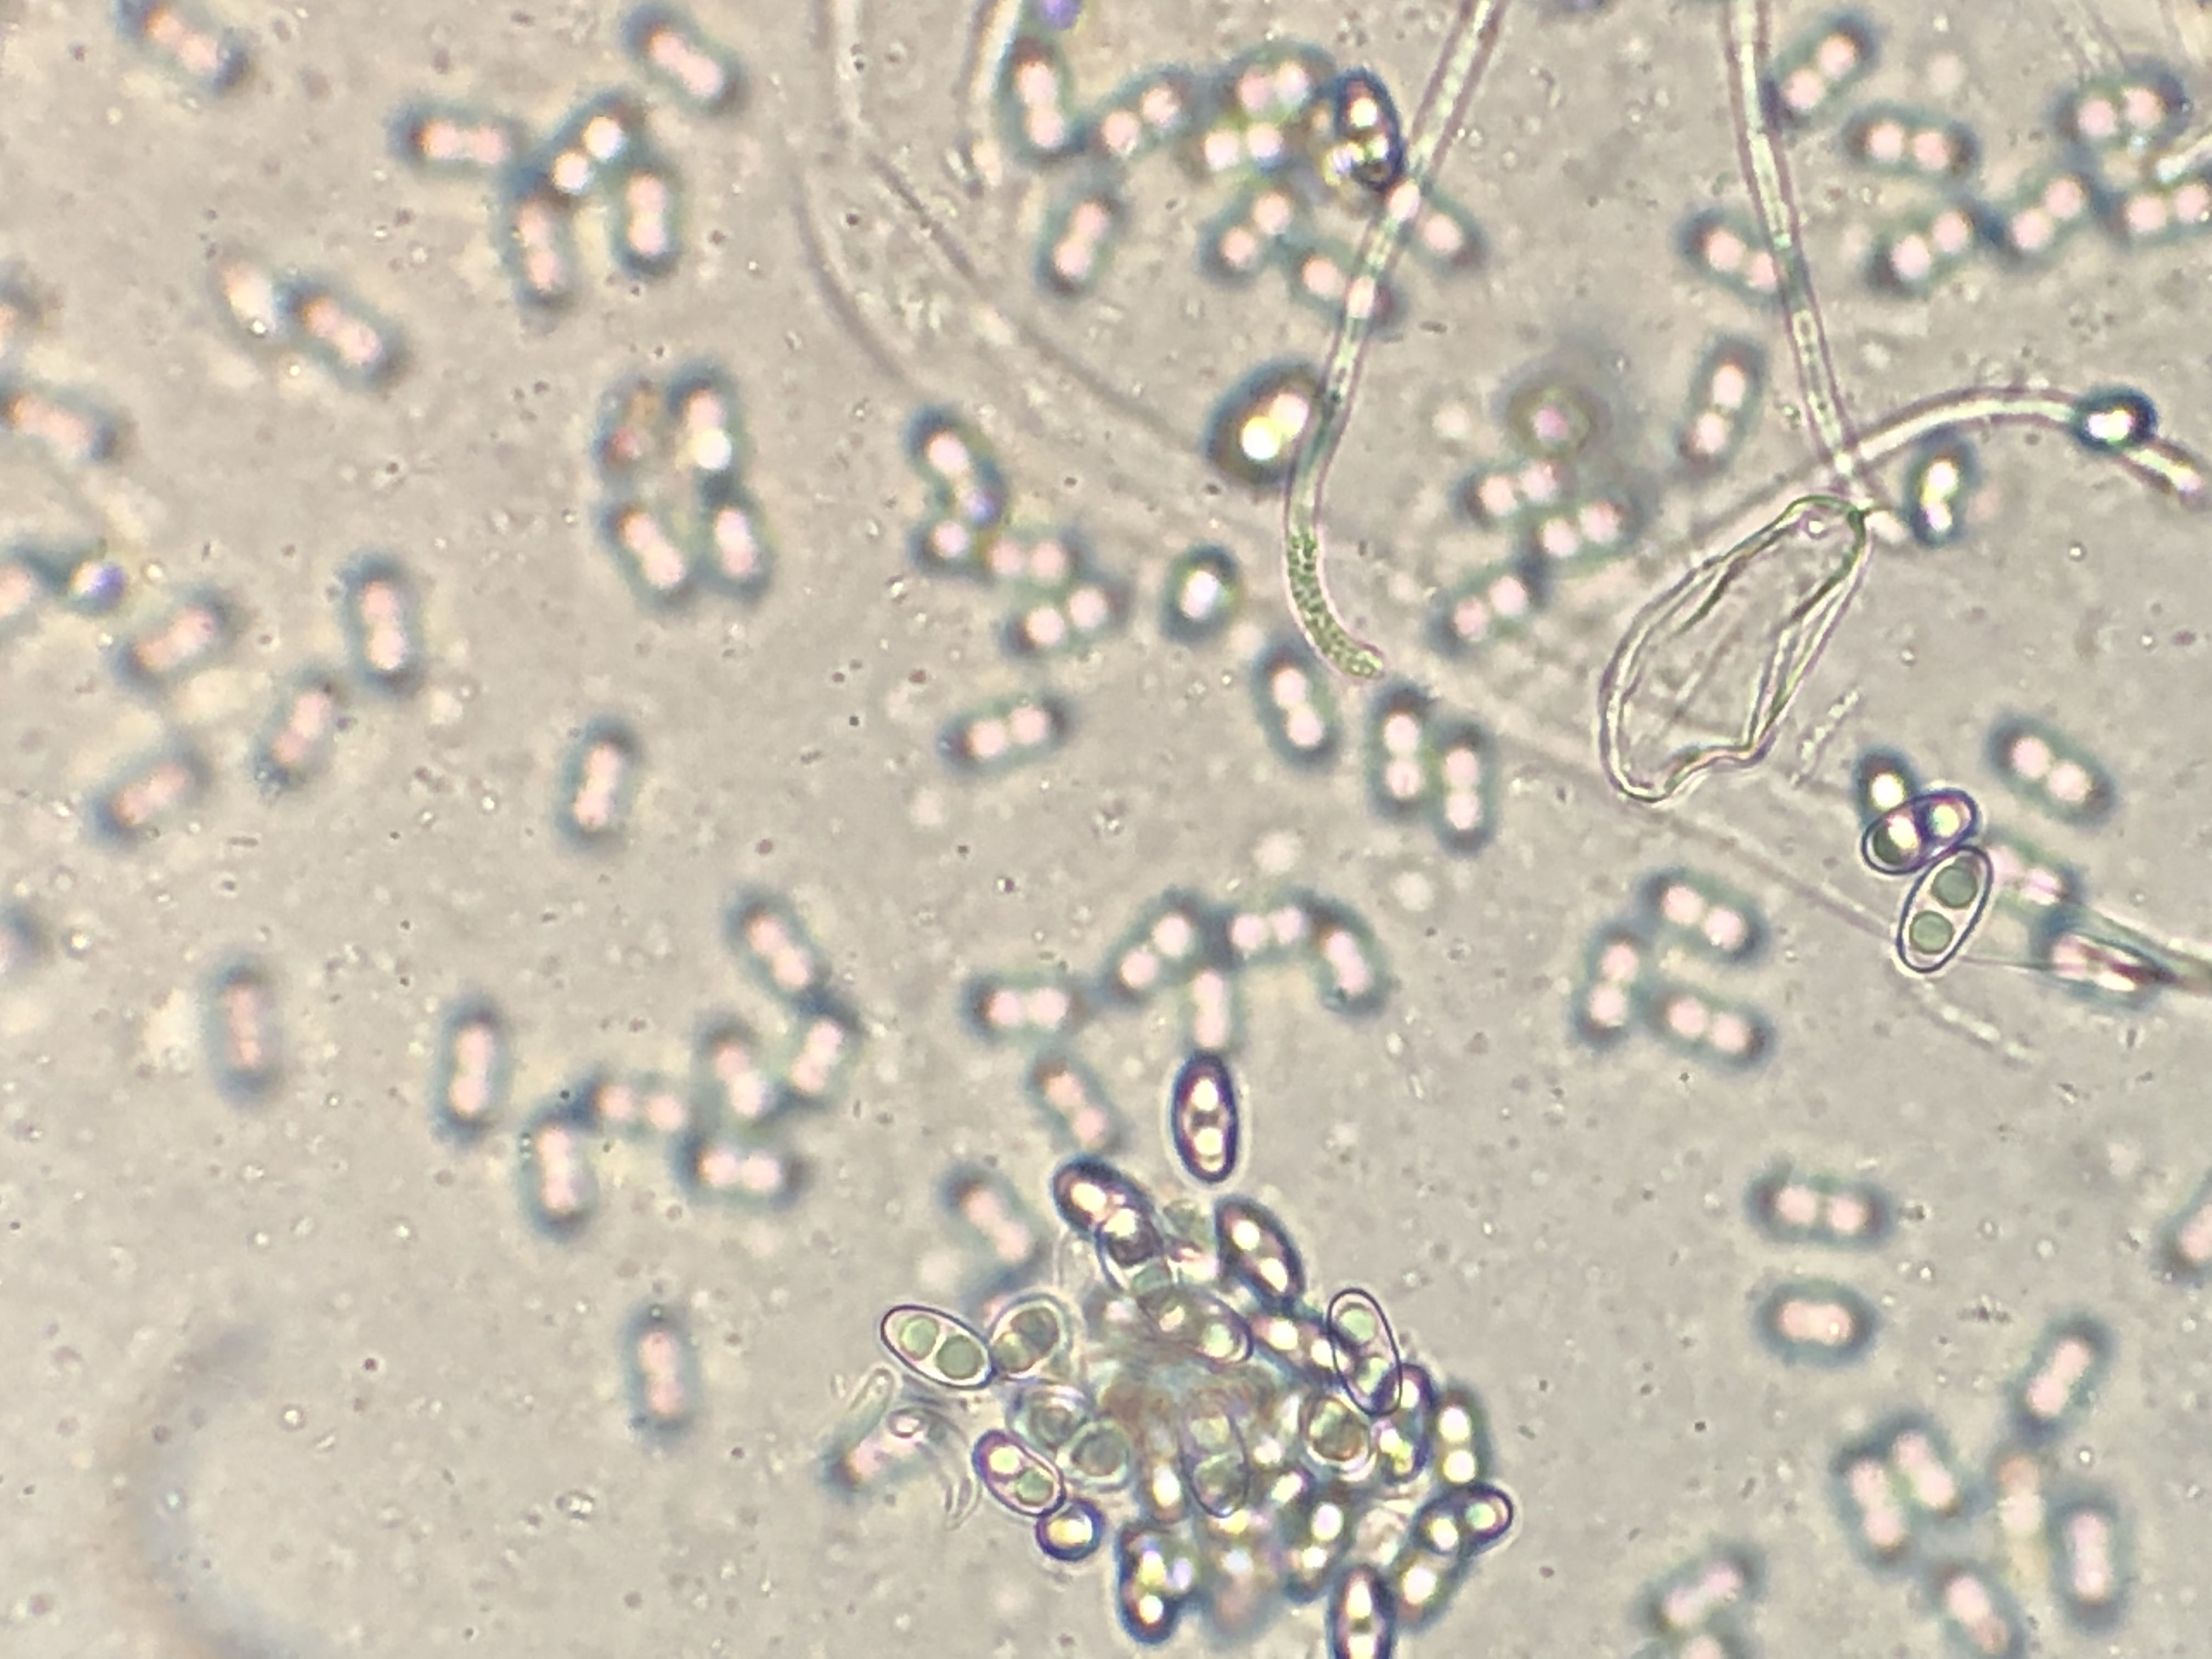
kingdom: Fungi
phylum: Ascomycota
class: Pezizomycetes
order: Pezizales
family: Otideaceae
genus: Otidea
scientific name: Otidea onotica
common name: æsel-ørebæger
